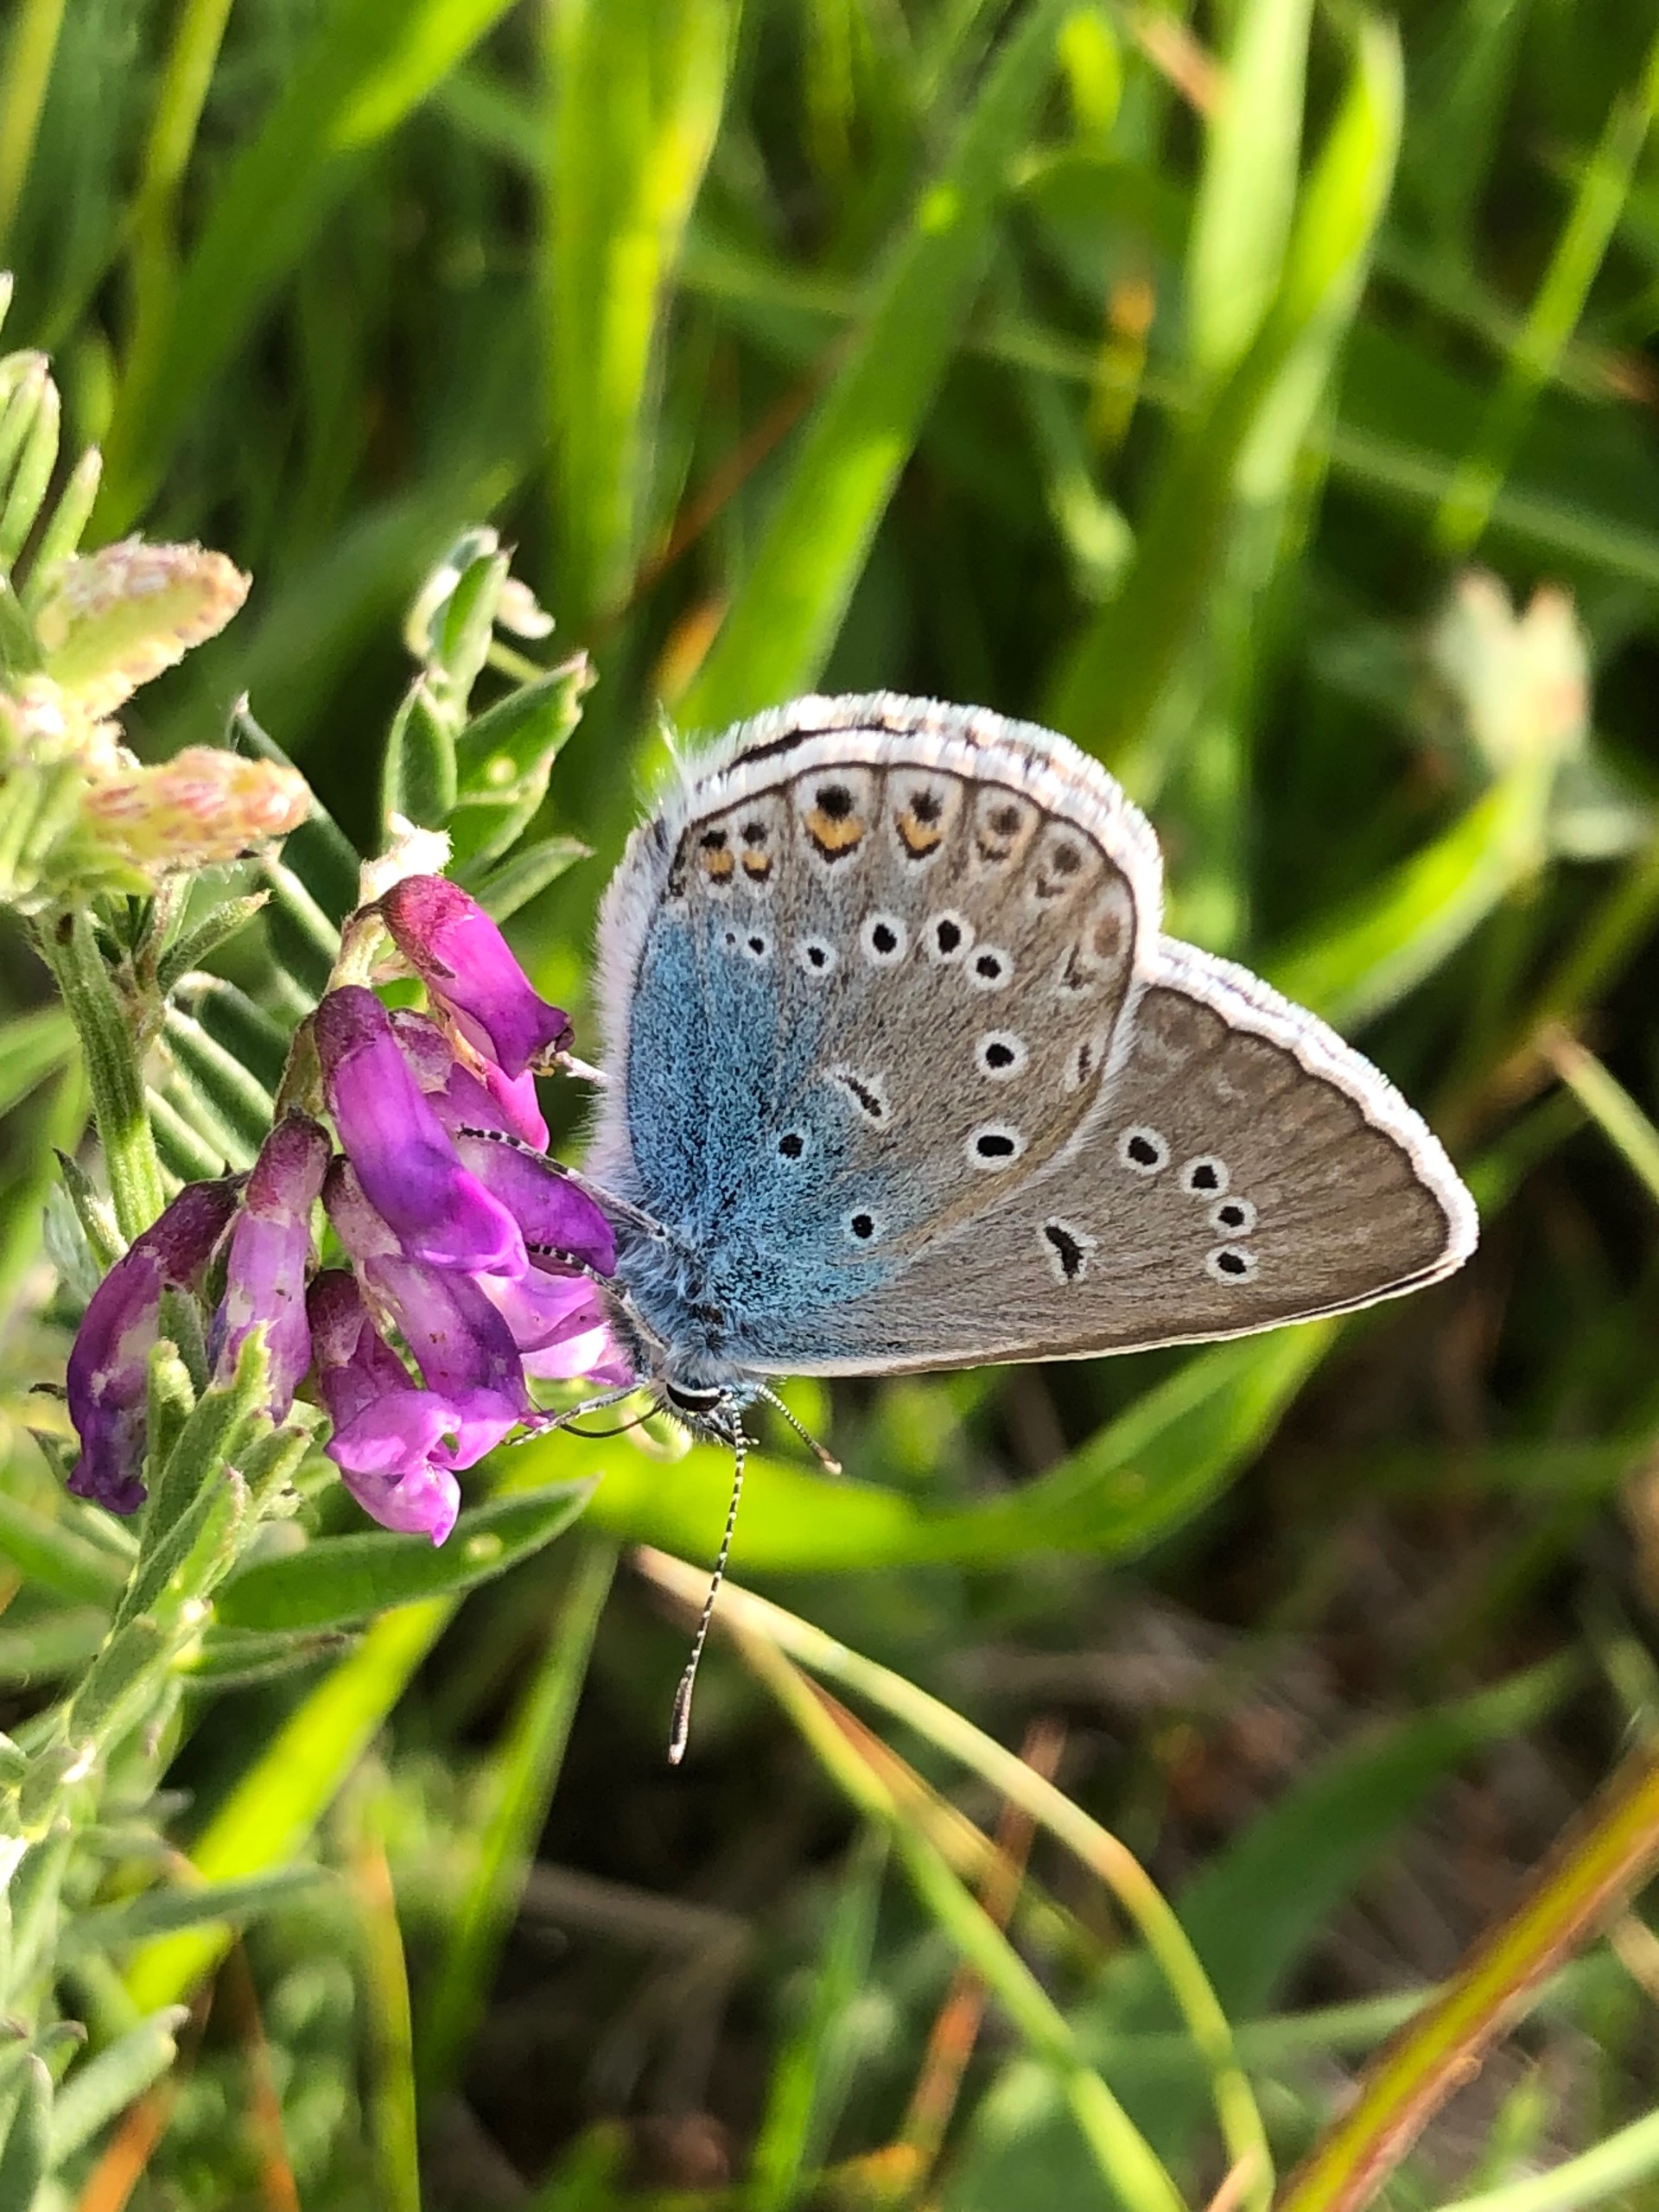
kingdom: Animalia
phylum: Arthropoda
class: Insecta
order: Lepidoptera
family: Lycaenidae
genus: Plebejus
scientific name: Plebejus amanda
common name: Isblåfugl
